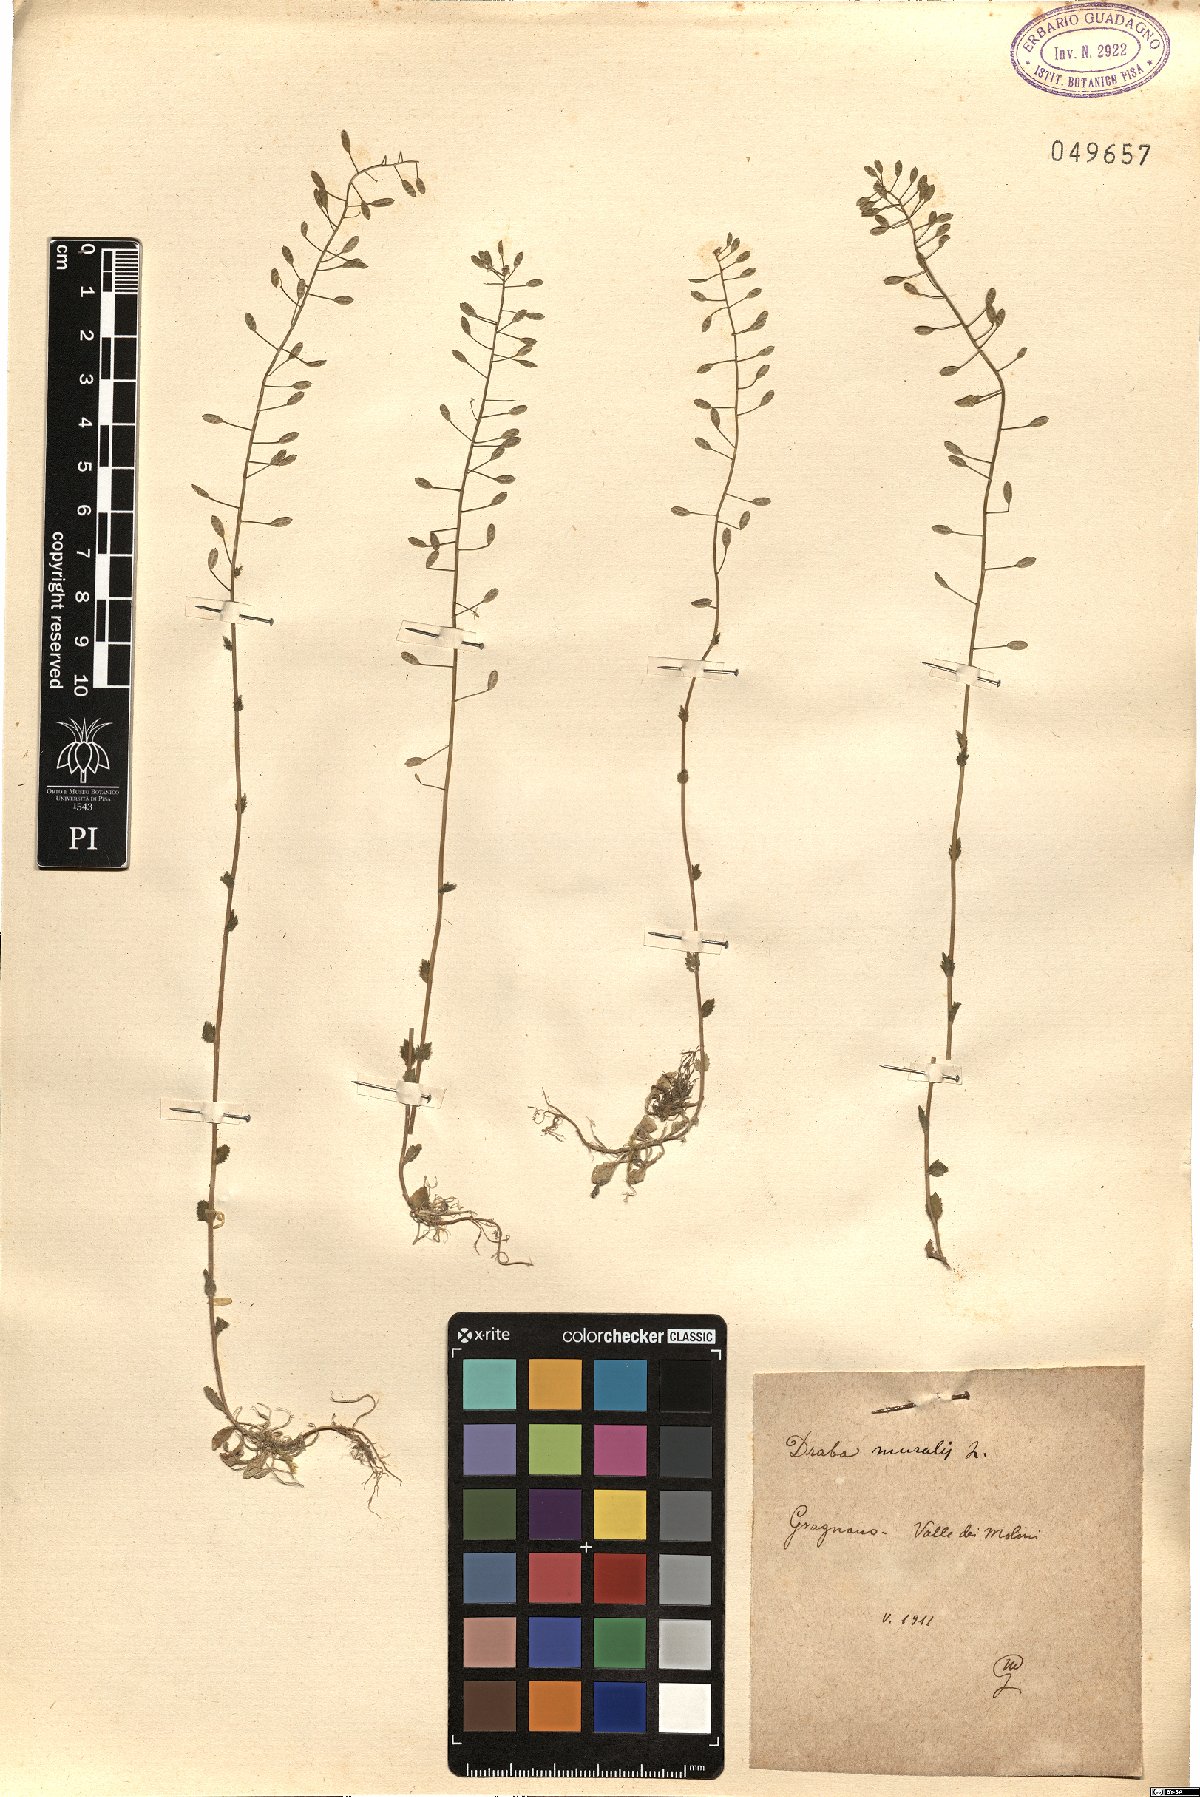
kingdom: Plantae
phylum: Tracheophyta
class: Magnoliopsida
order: Brassicales
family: Brassicaceae
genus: Drabella
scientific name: Drabella muralis
